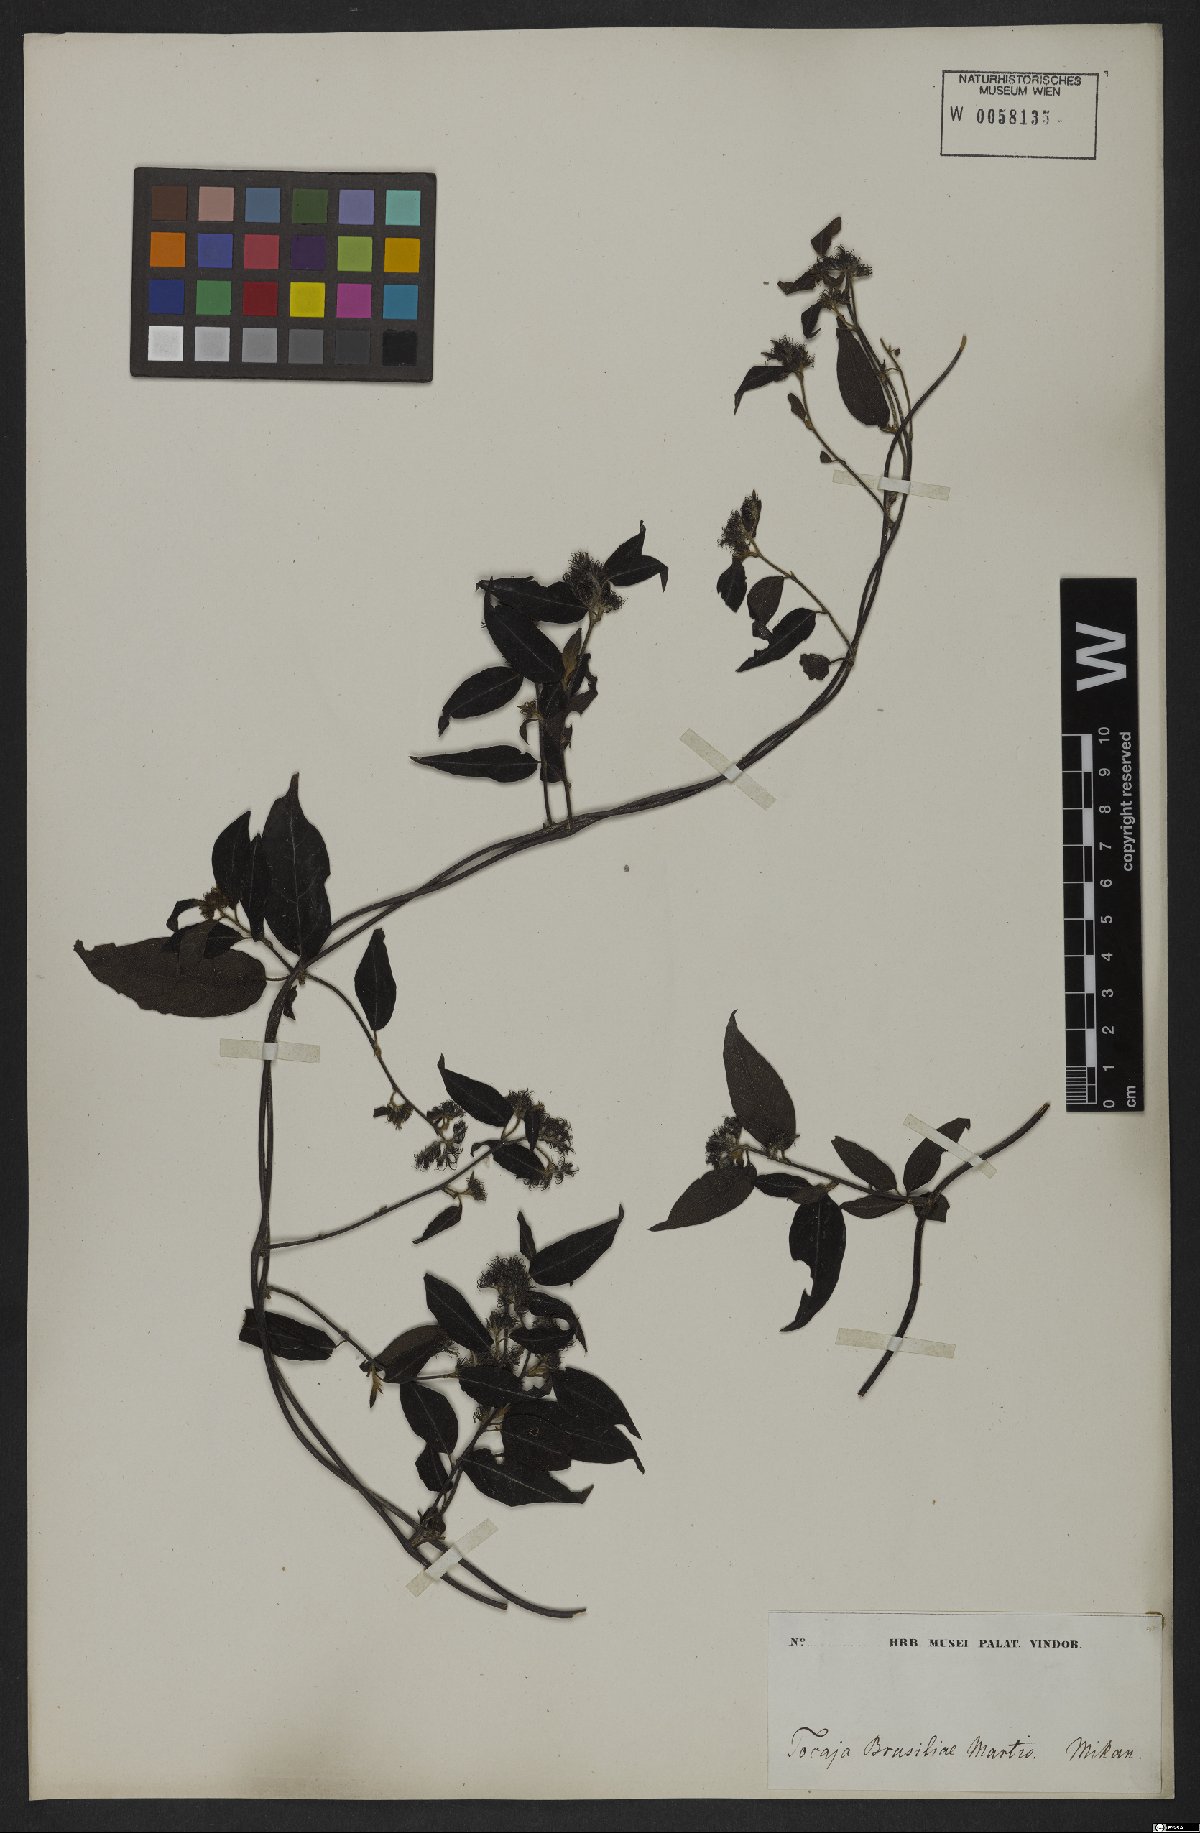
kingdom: Plantae
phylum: Tracheophyta
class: Magnoliopsida
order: Boraginales
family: Heliotropiaceae
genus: Myriopus
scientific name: Myriopus volubilis
